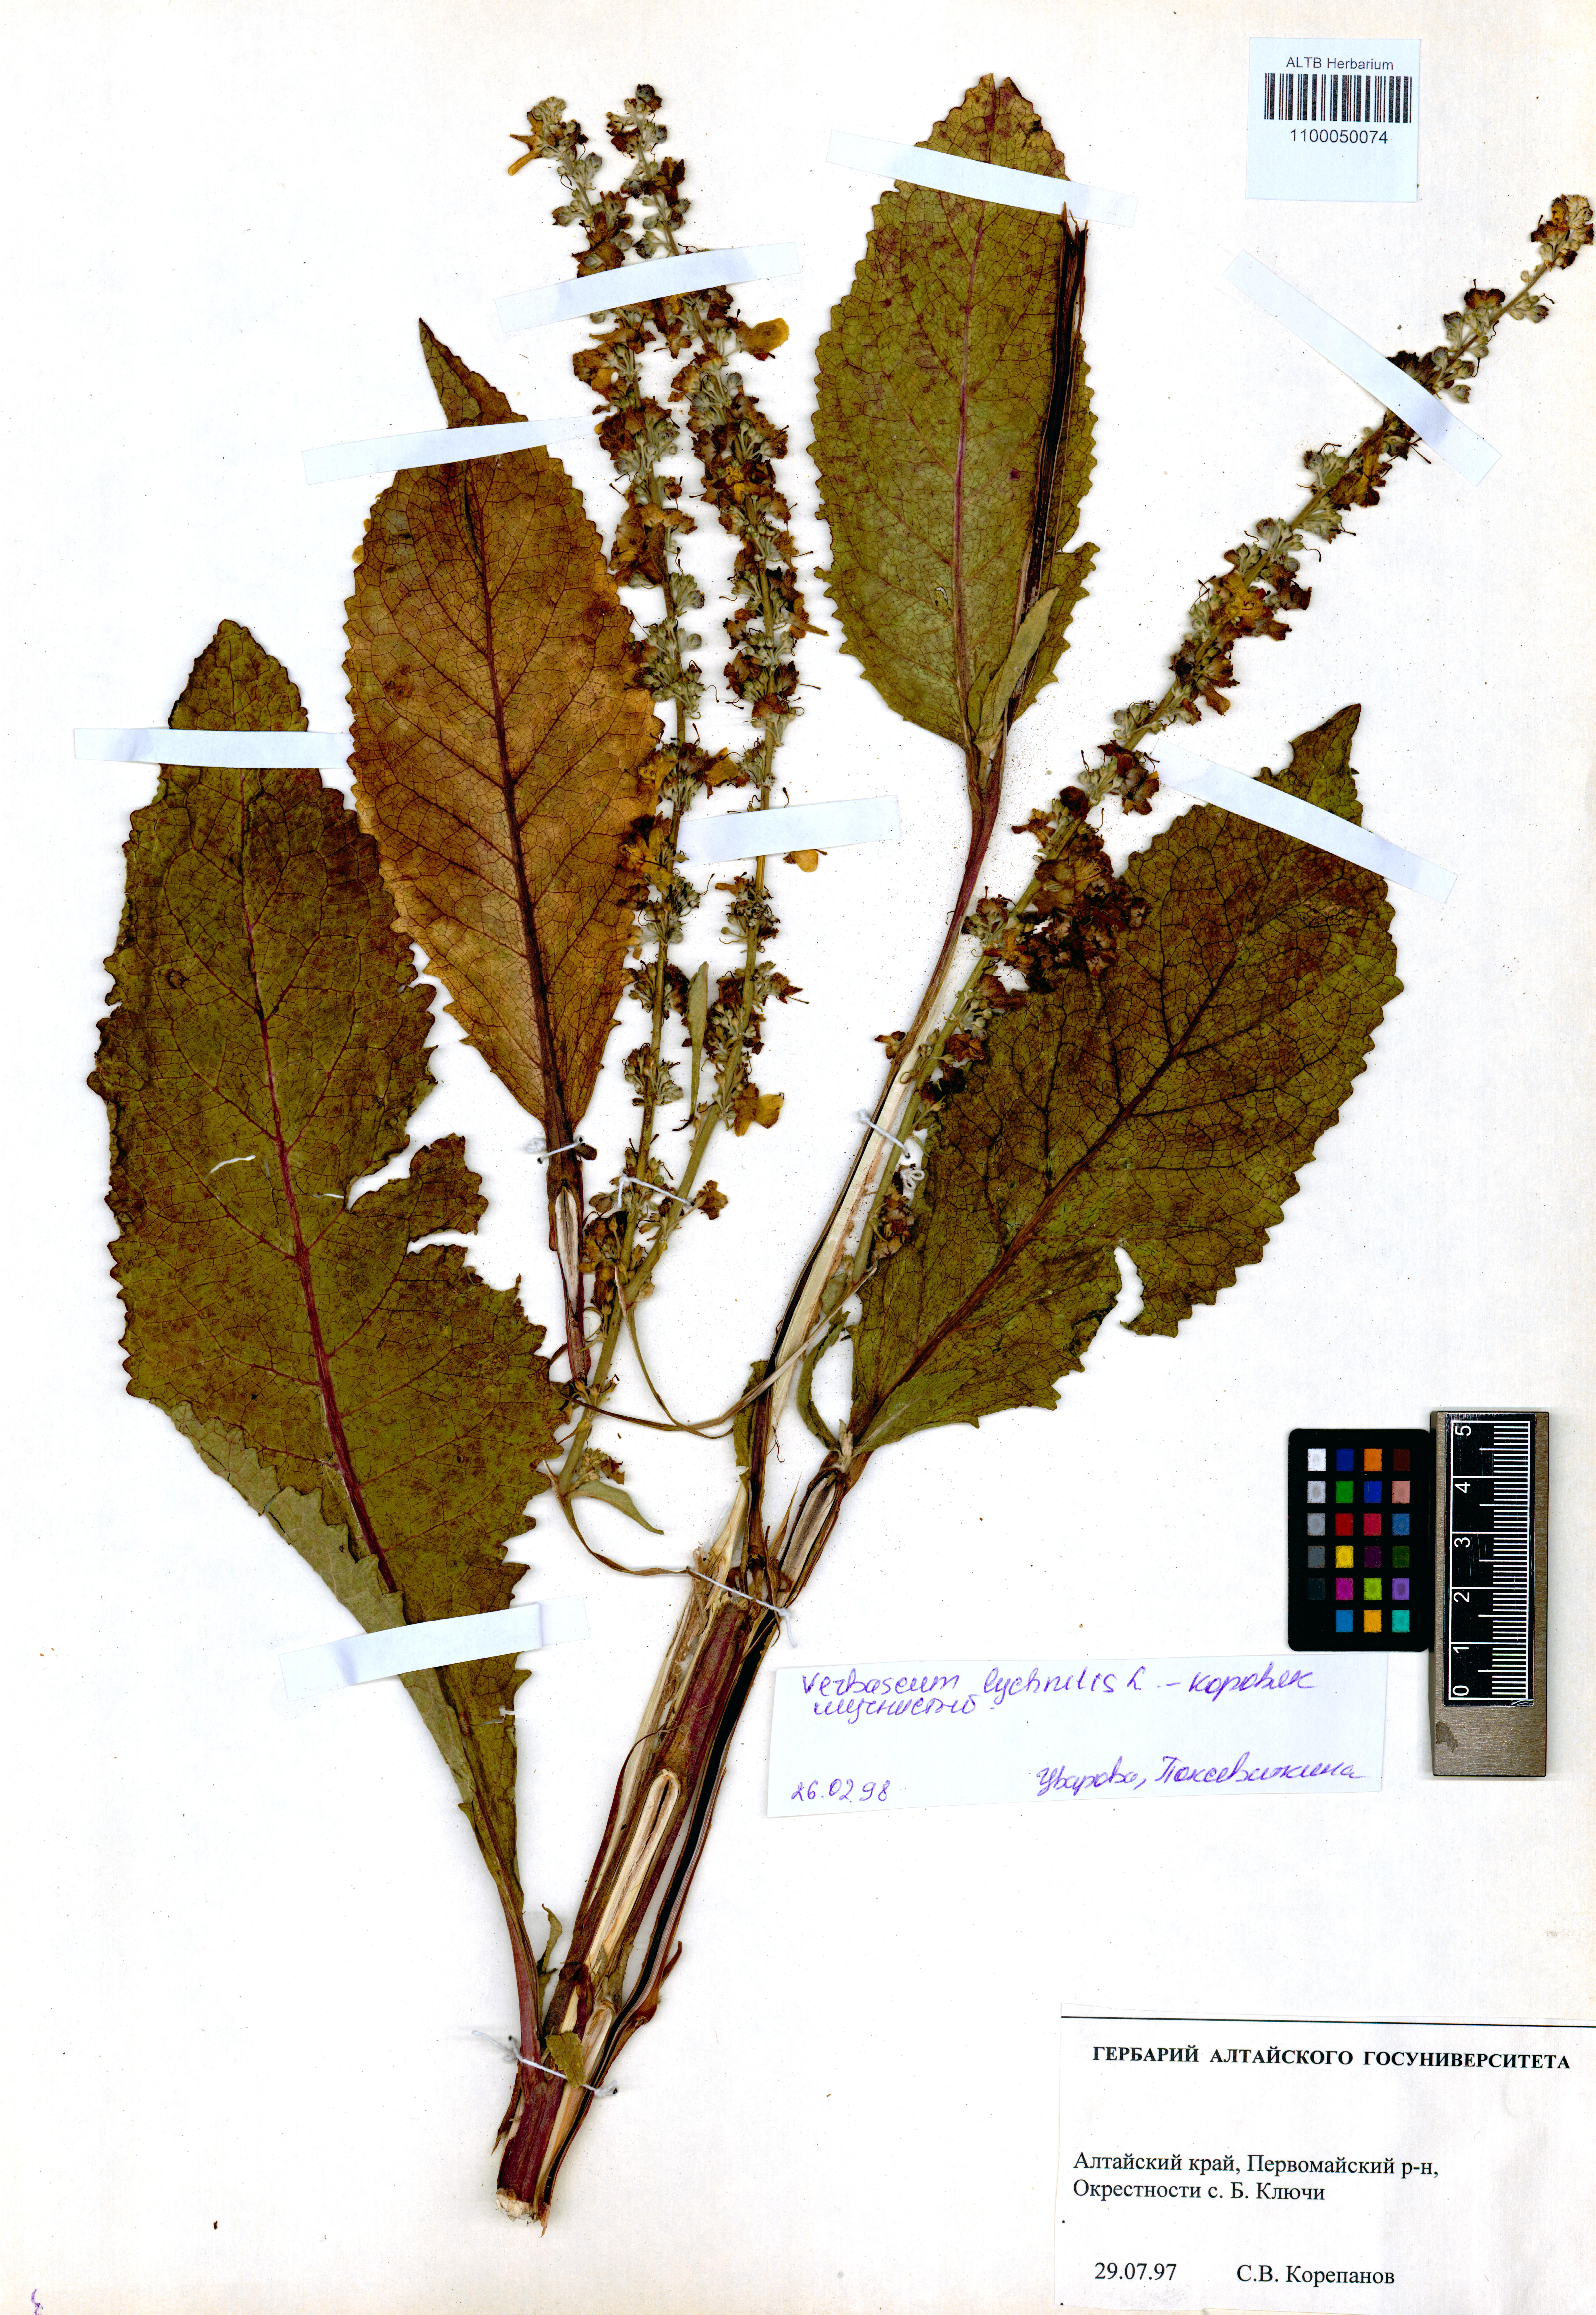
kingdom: Plantae
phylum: Tracheophyta
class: Magnoliopsida
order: Lamiales
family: Scrophulariaceae
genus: Verbascum
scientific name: Verbascum lychnitis
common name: White mullein
